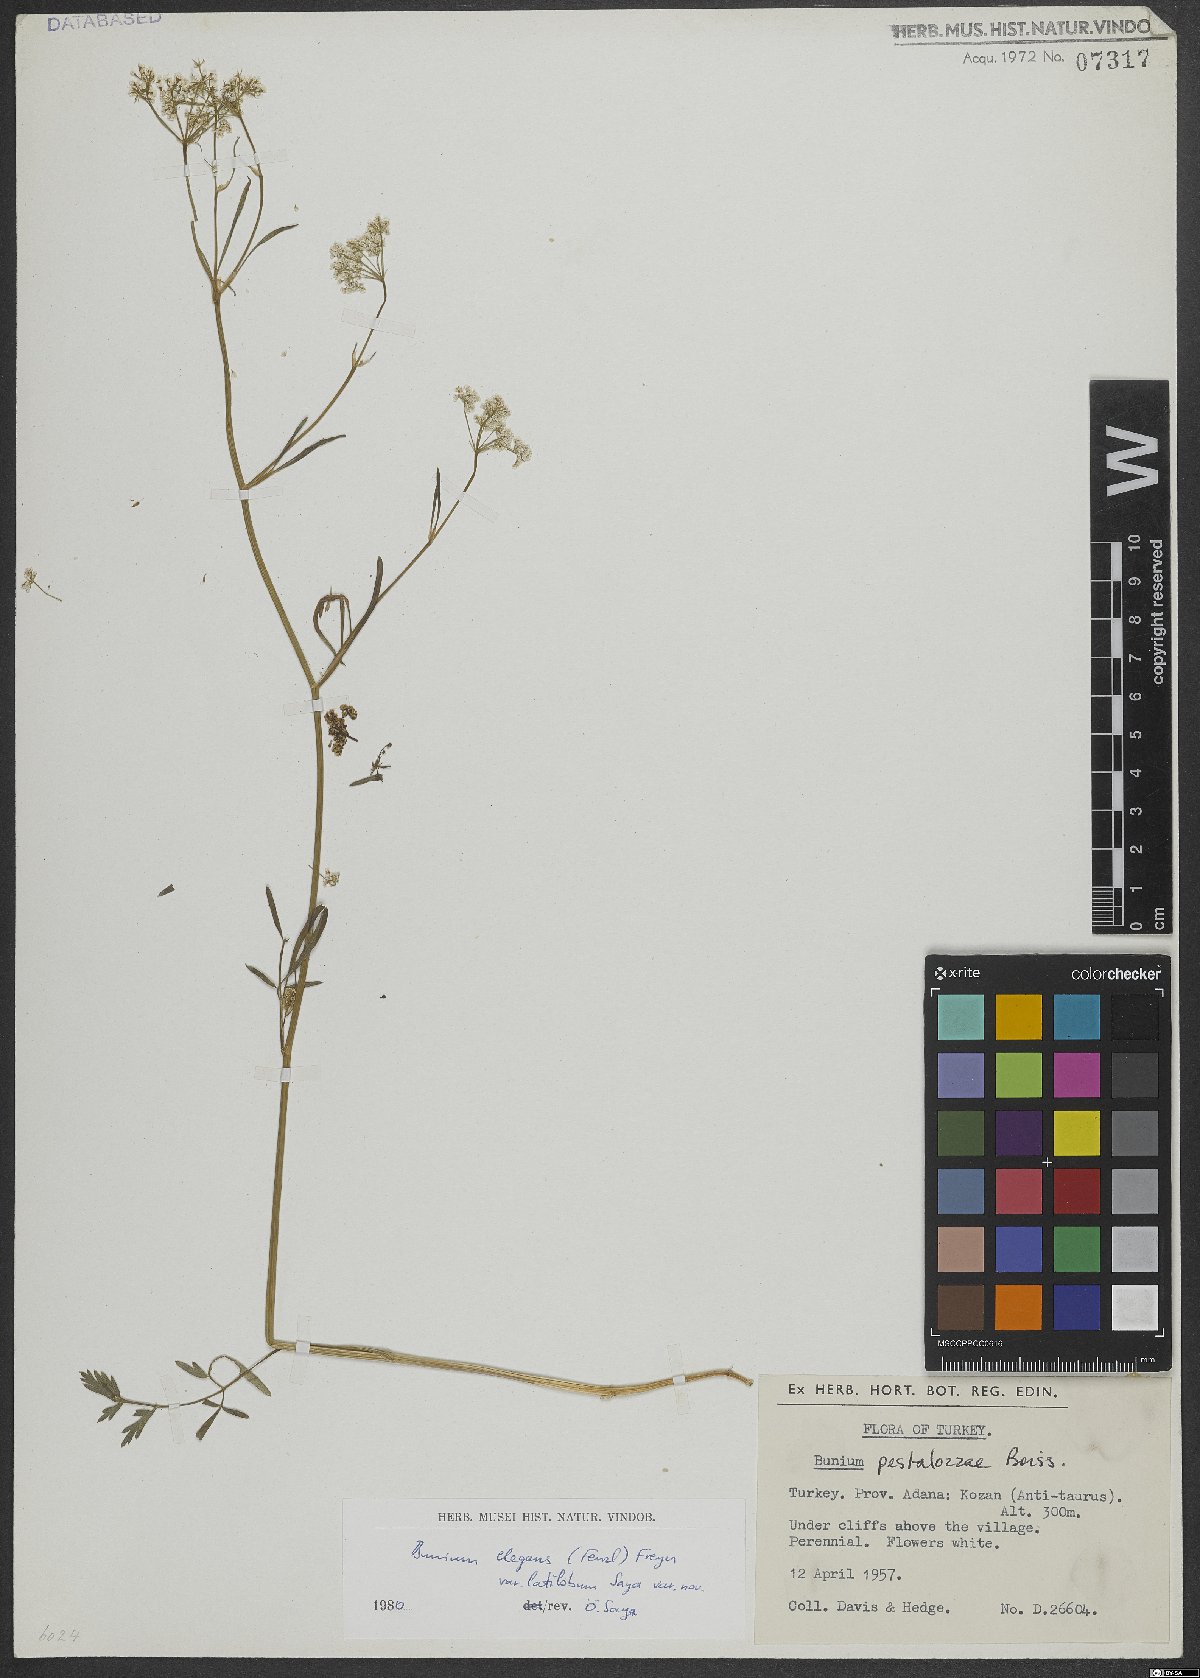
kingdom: Plantae
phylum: Tracheophyta
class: Magnoliopsida
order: Apiales
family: Apiaceae
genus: Bunium
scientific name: Bunium elegans
